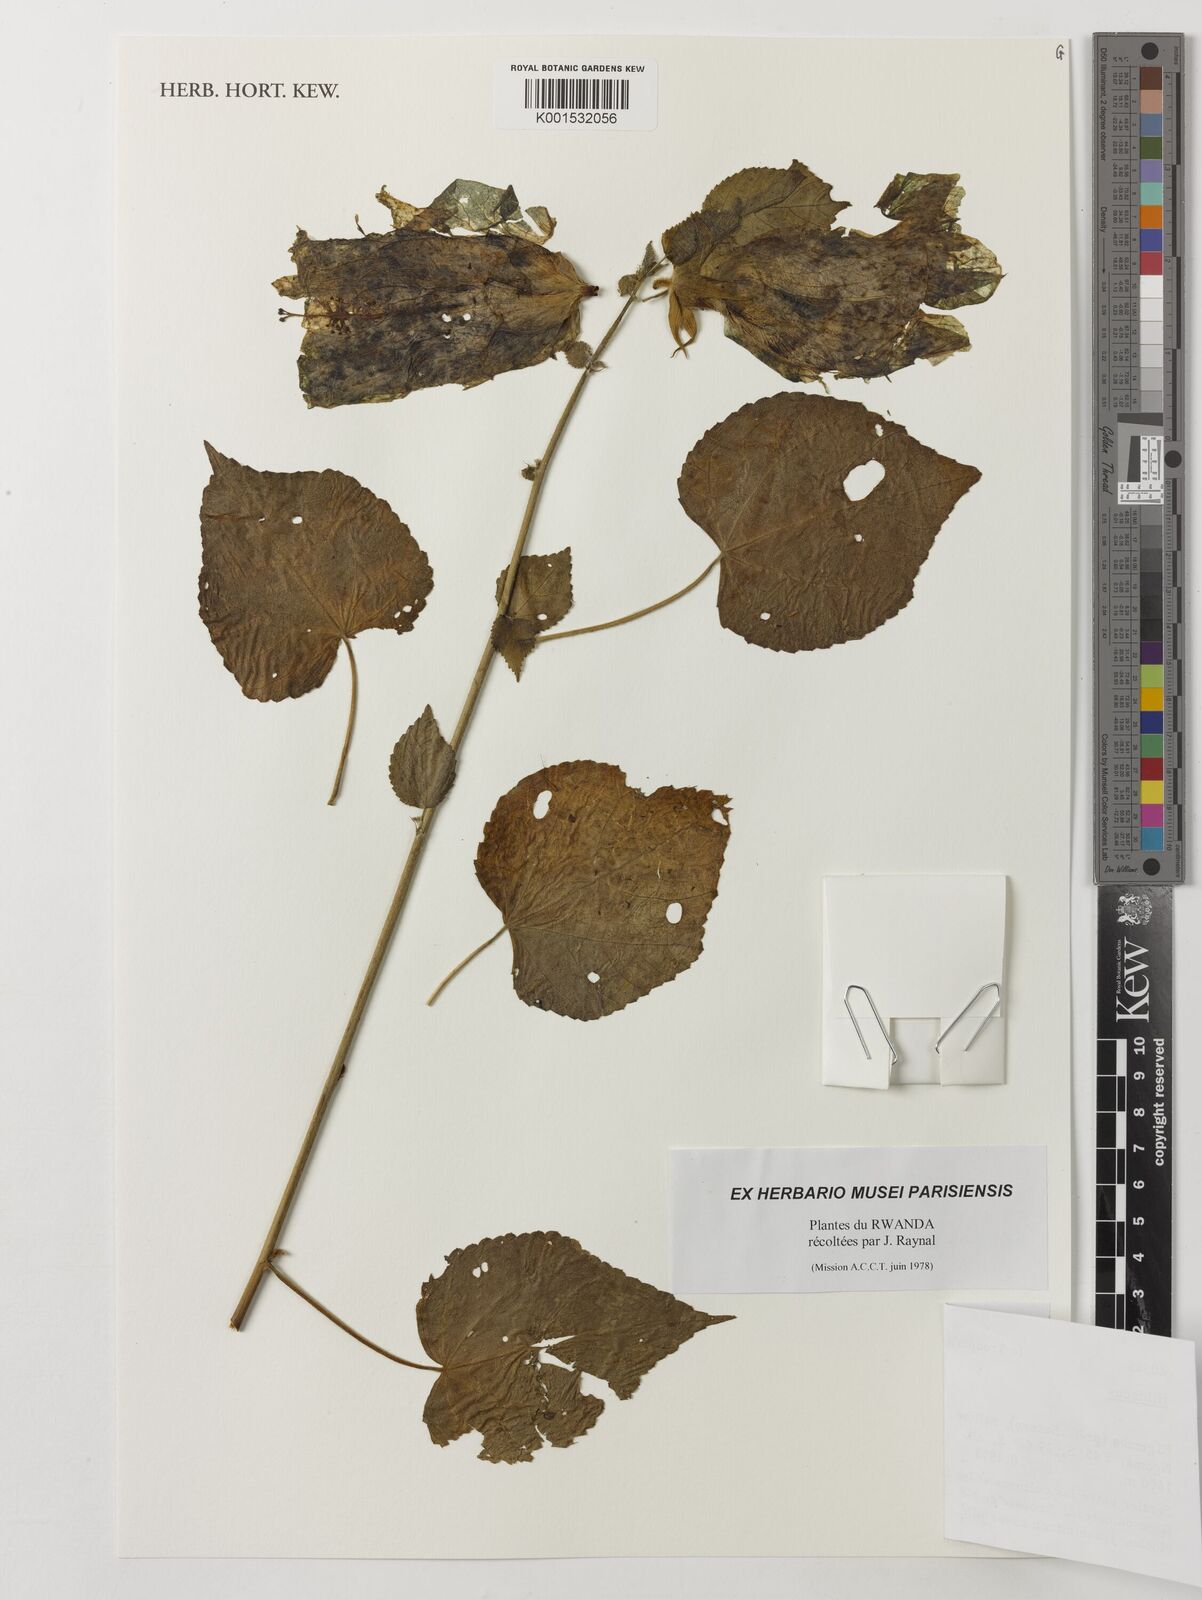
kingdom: Plantae
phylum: Tracheophyta
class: Magnoliopsida
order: Malvales
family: Malvaceae
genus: Hibiscus
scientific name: Hibiscus
